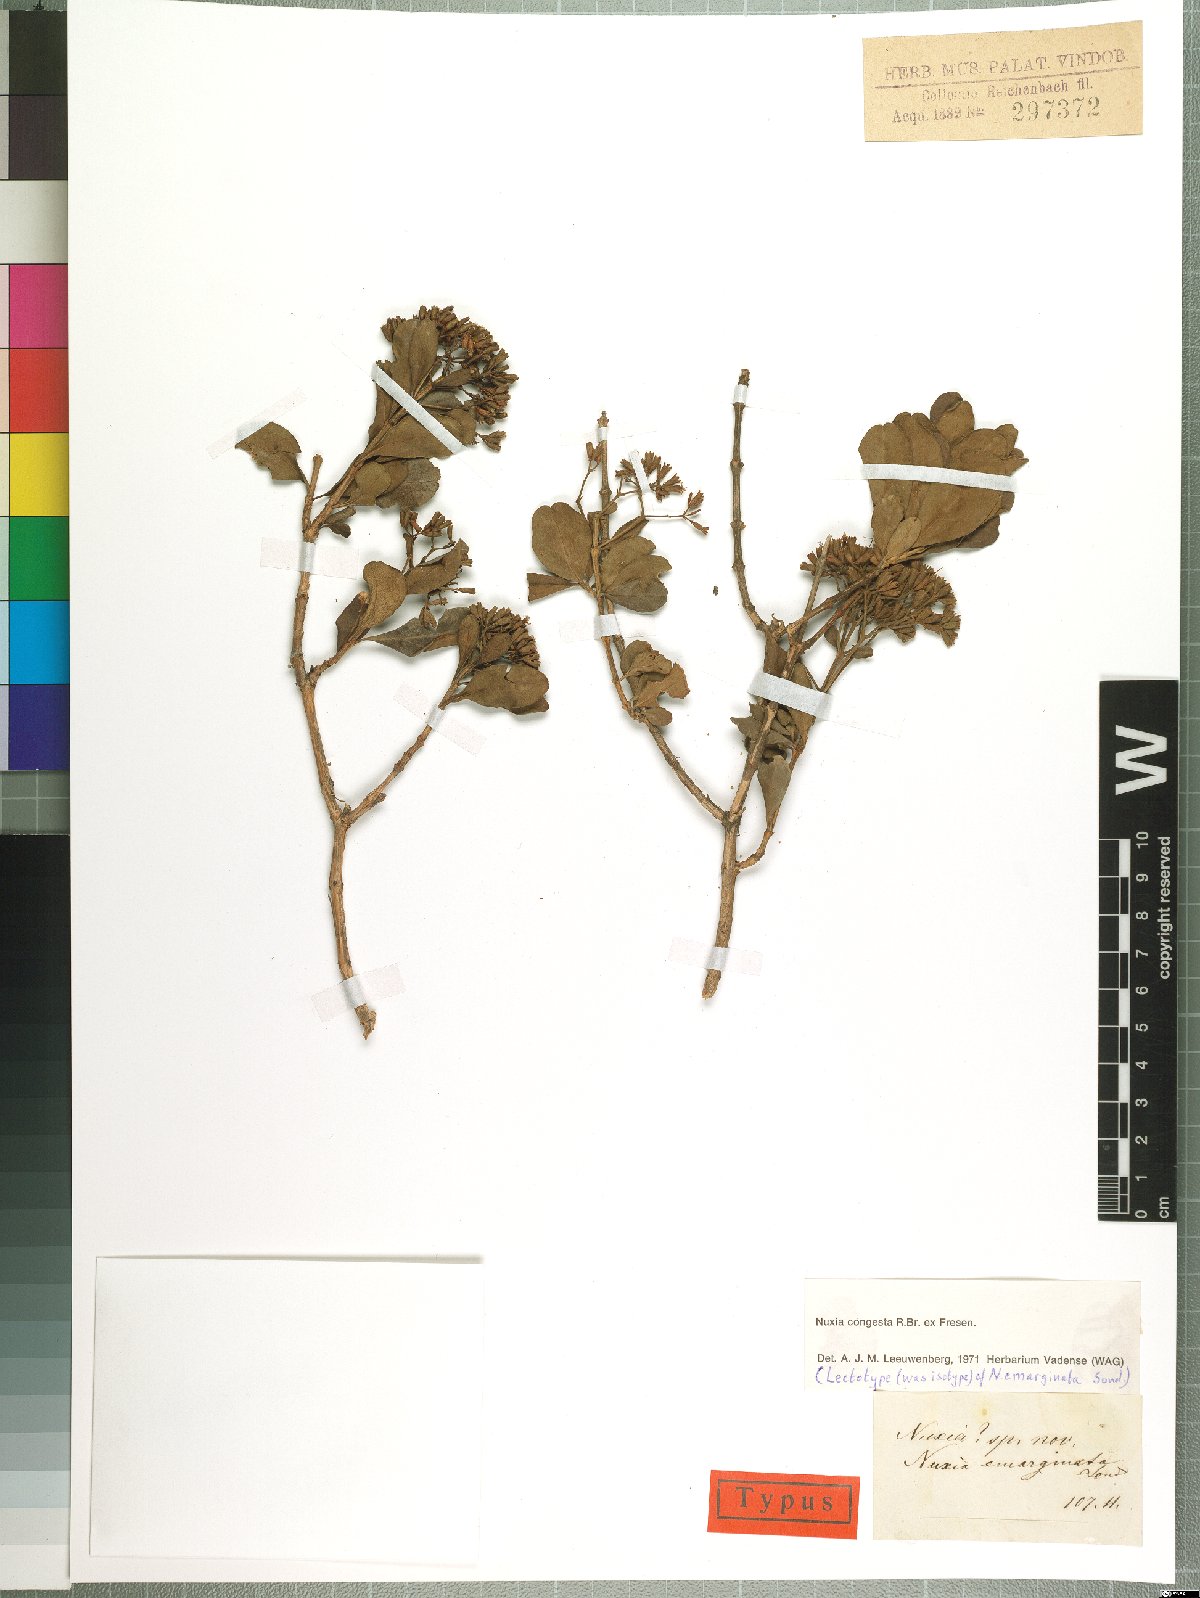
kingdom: Plantae
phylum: Tracheophyta
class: Magnoliopsida
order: Lamiales
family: Stilbaceae
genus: Nuxia
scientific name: Nuxia congesta
